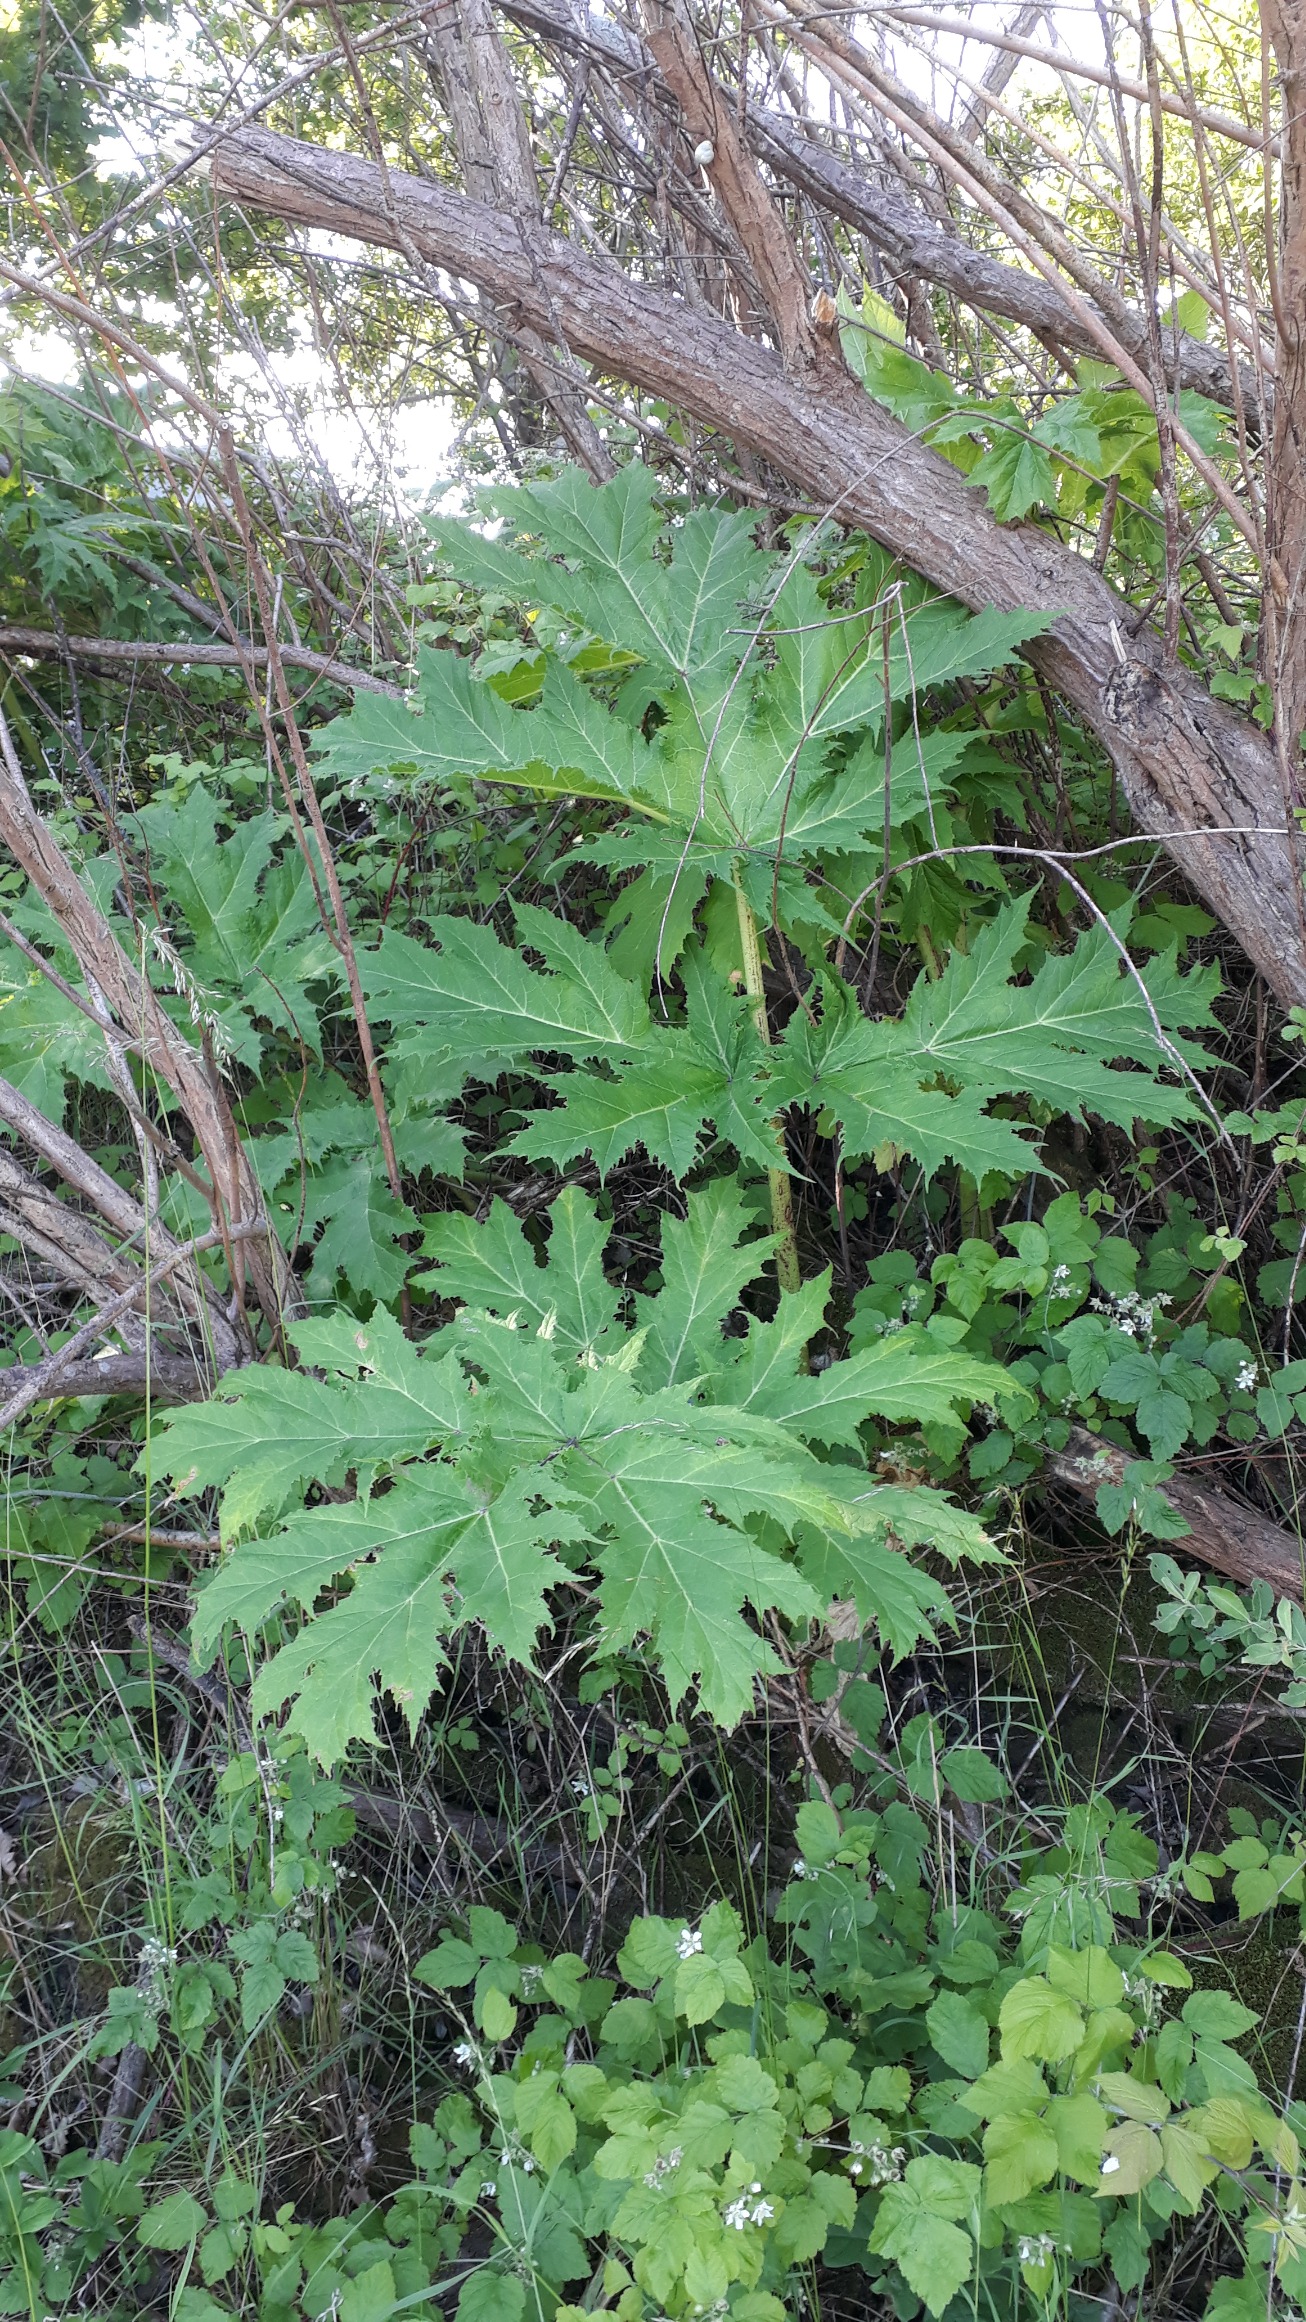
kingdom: Plantae
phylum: Tracheophyta
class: Magnoliopsida
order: Apiales
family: Apiaceae
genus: Heracleum
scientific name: Heracleum mantegazzianum
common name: Kæmpe-bjørneklo
